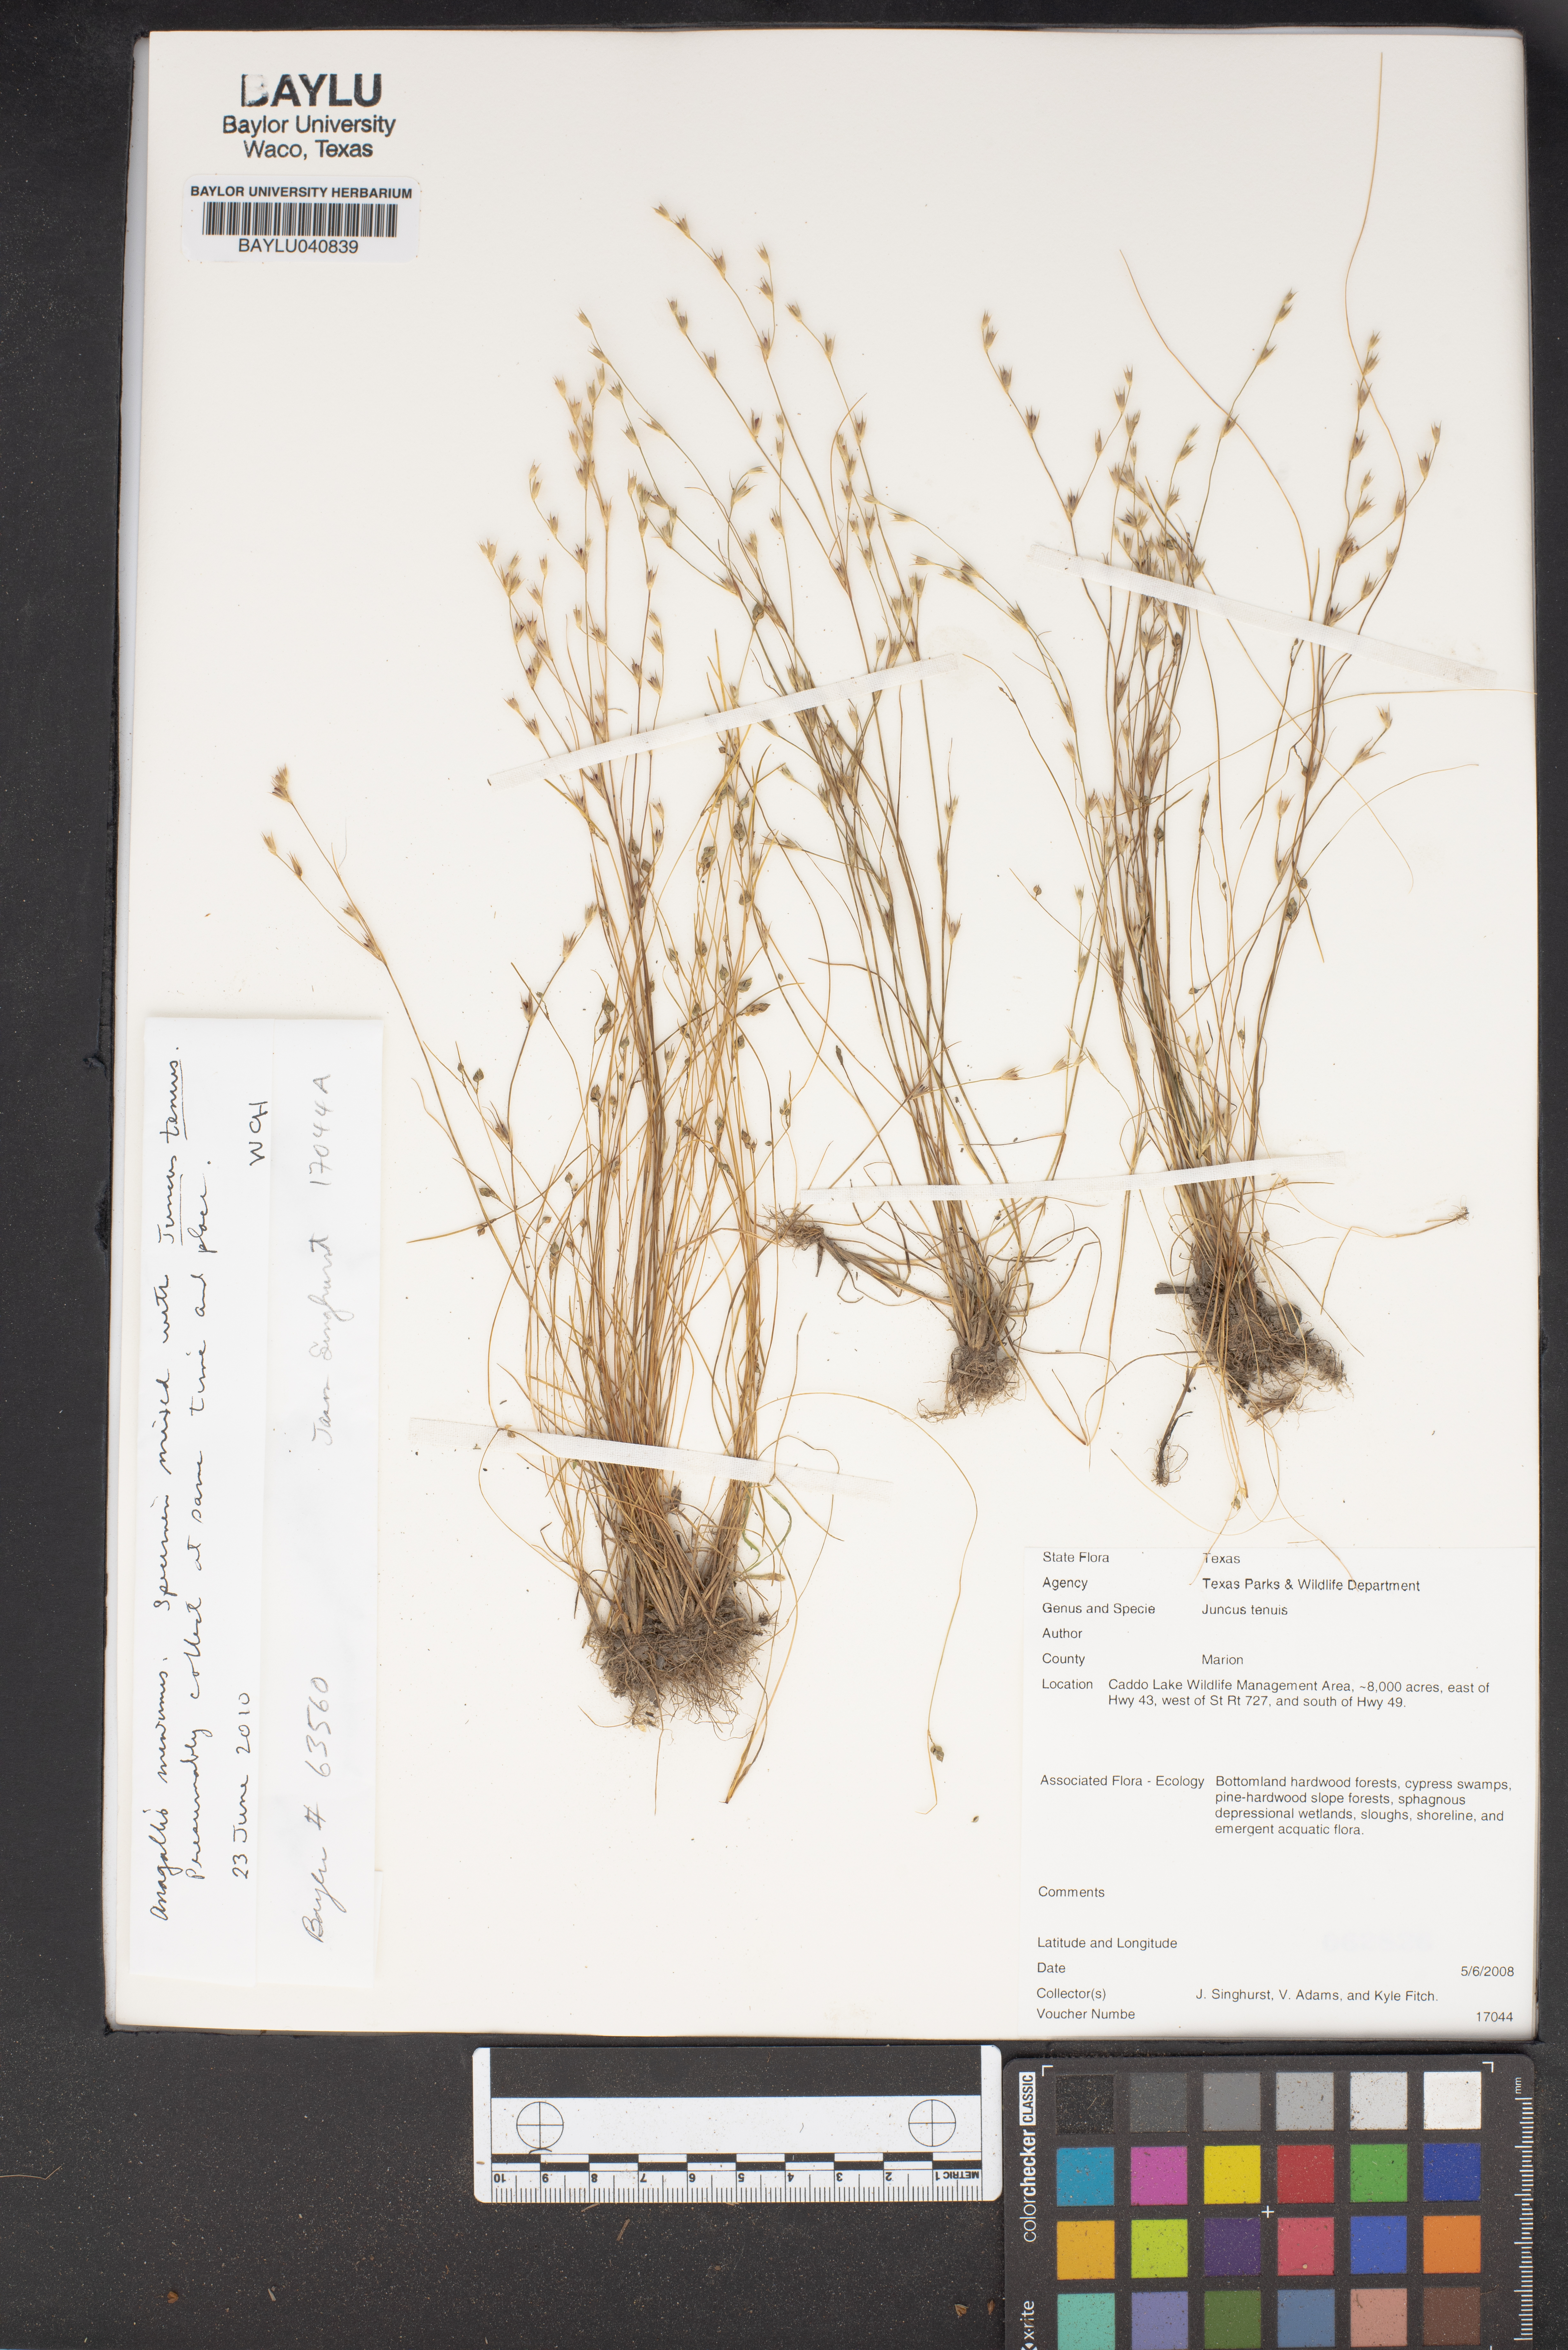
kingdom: Plantae
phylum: Tracheophyta
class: Liliopsida
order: Poales
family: Juncaceae
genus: Juncus
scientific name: Juncus tenuis
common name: Slender rush
